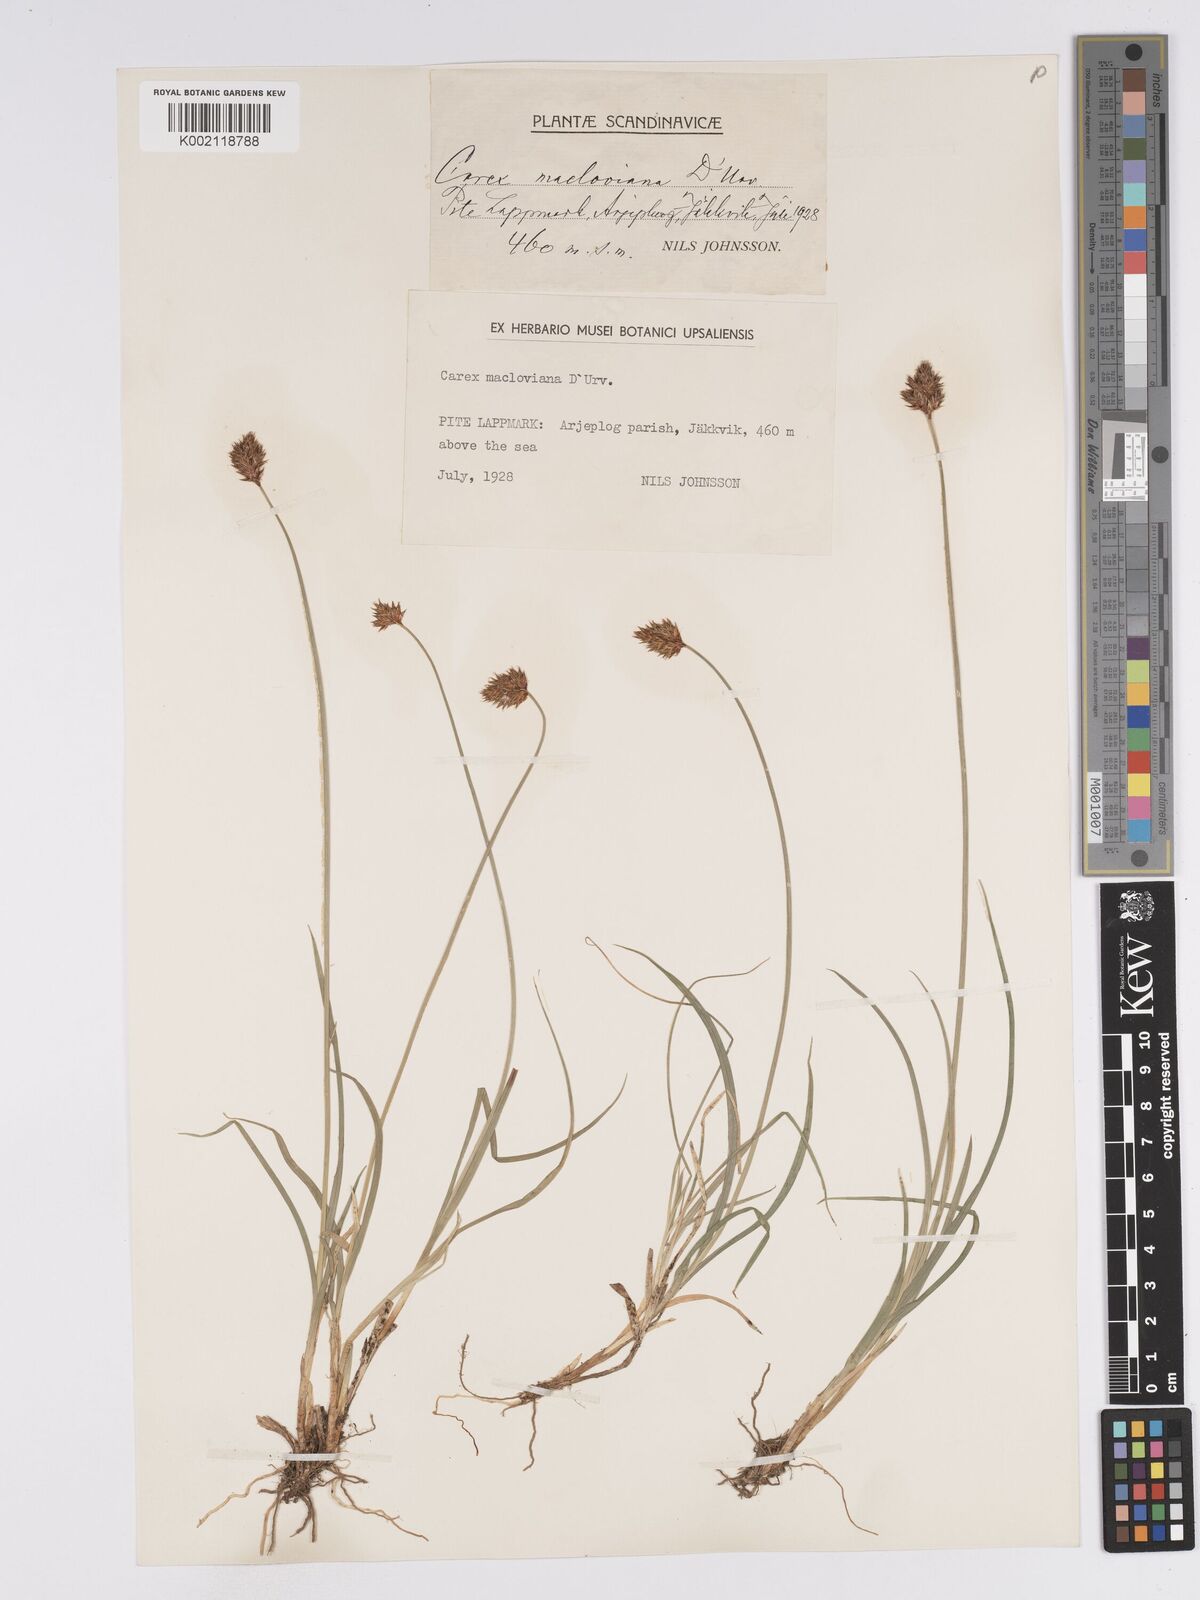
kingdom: Plantae
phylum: Tracheophyta
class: Liliopsida
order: Poales
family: Cyperaceae
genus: Carex
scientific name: Carex macloviana
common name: Falkland island sedge
